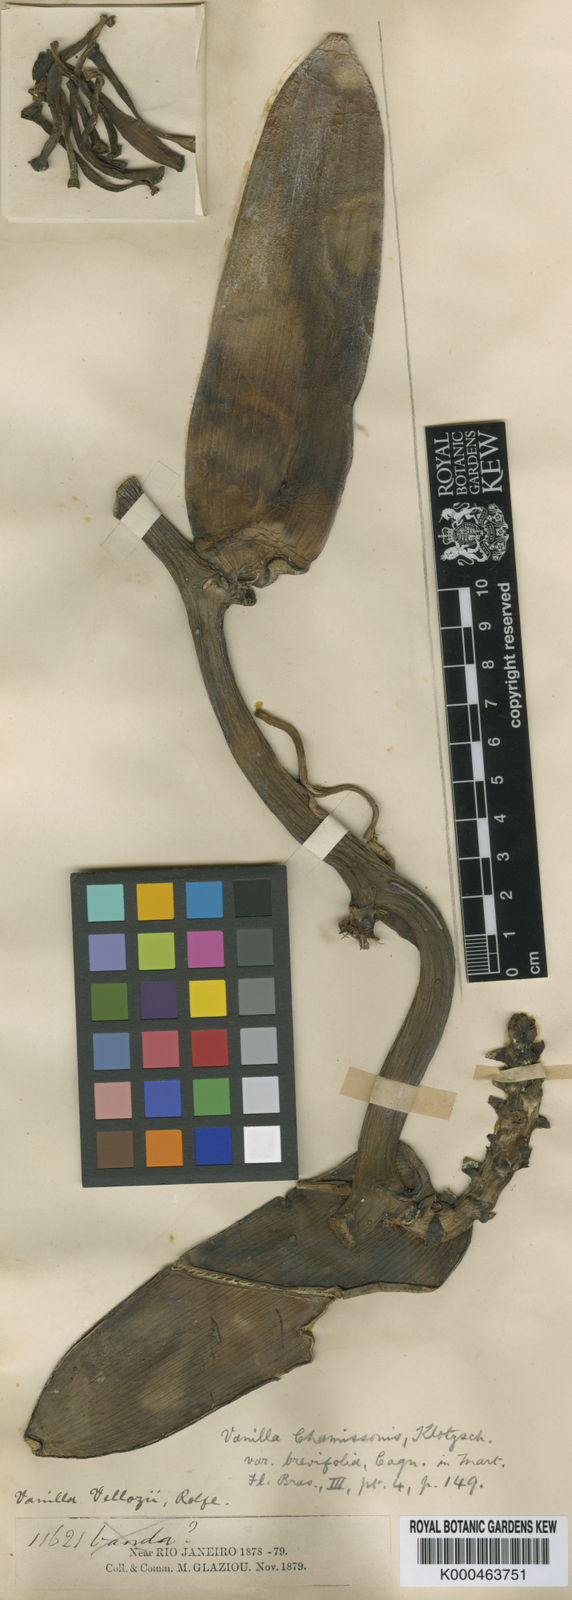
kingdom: Plantae
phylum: Tracheophyta
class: Liliopsida
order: Asparagales
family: Orchidaceae
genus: Vanilla
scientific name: Vanilla
